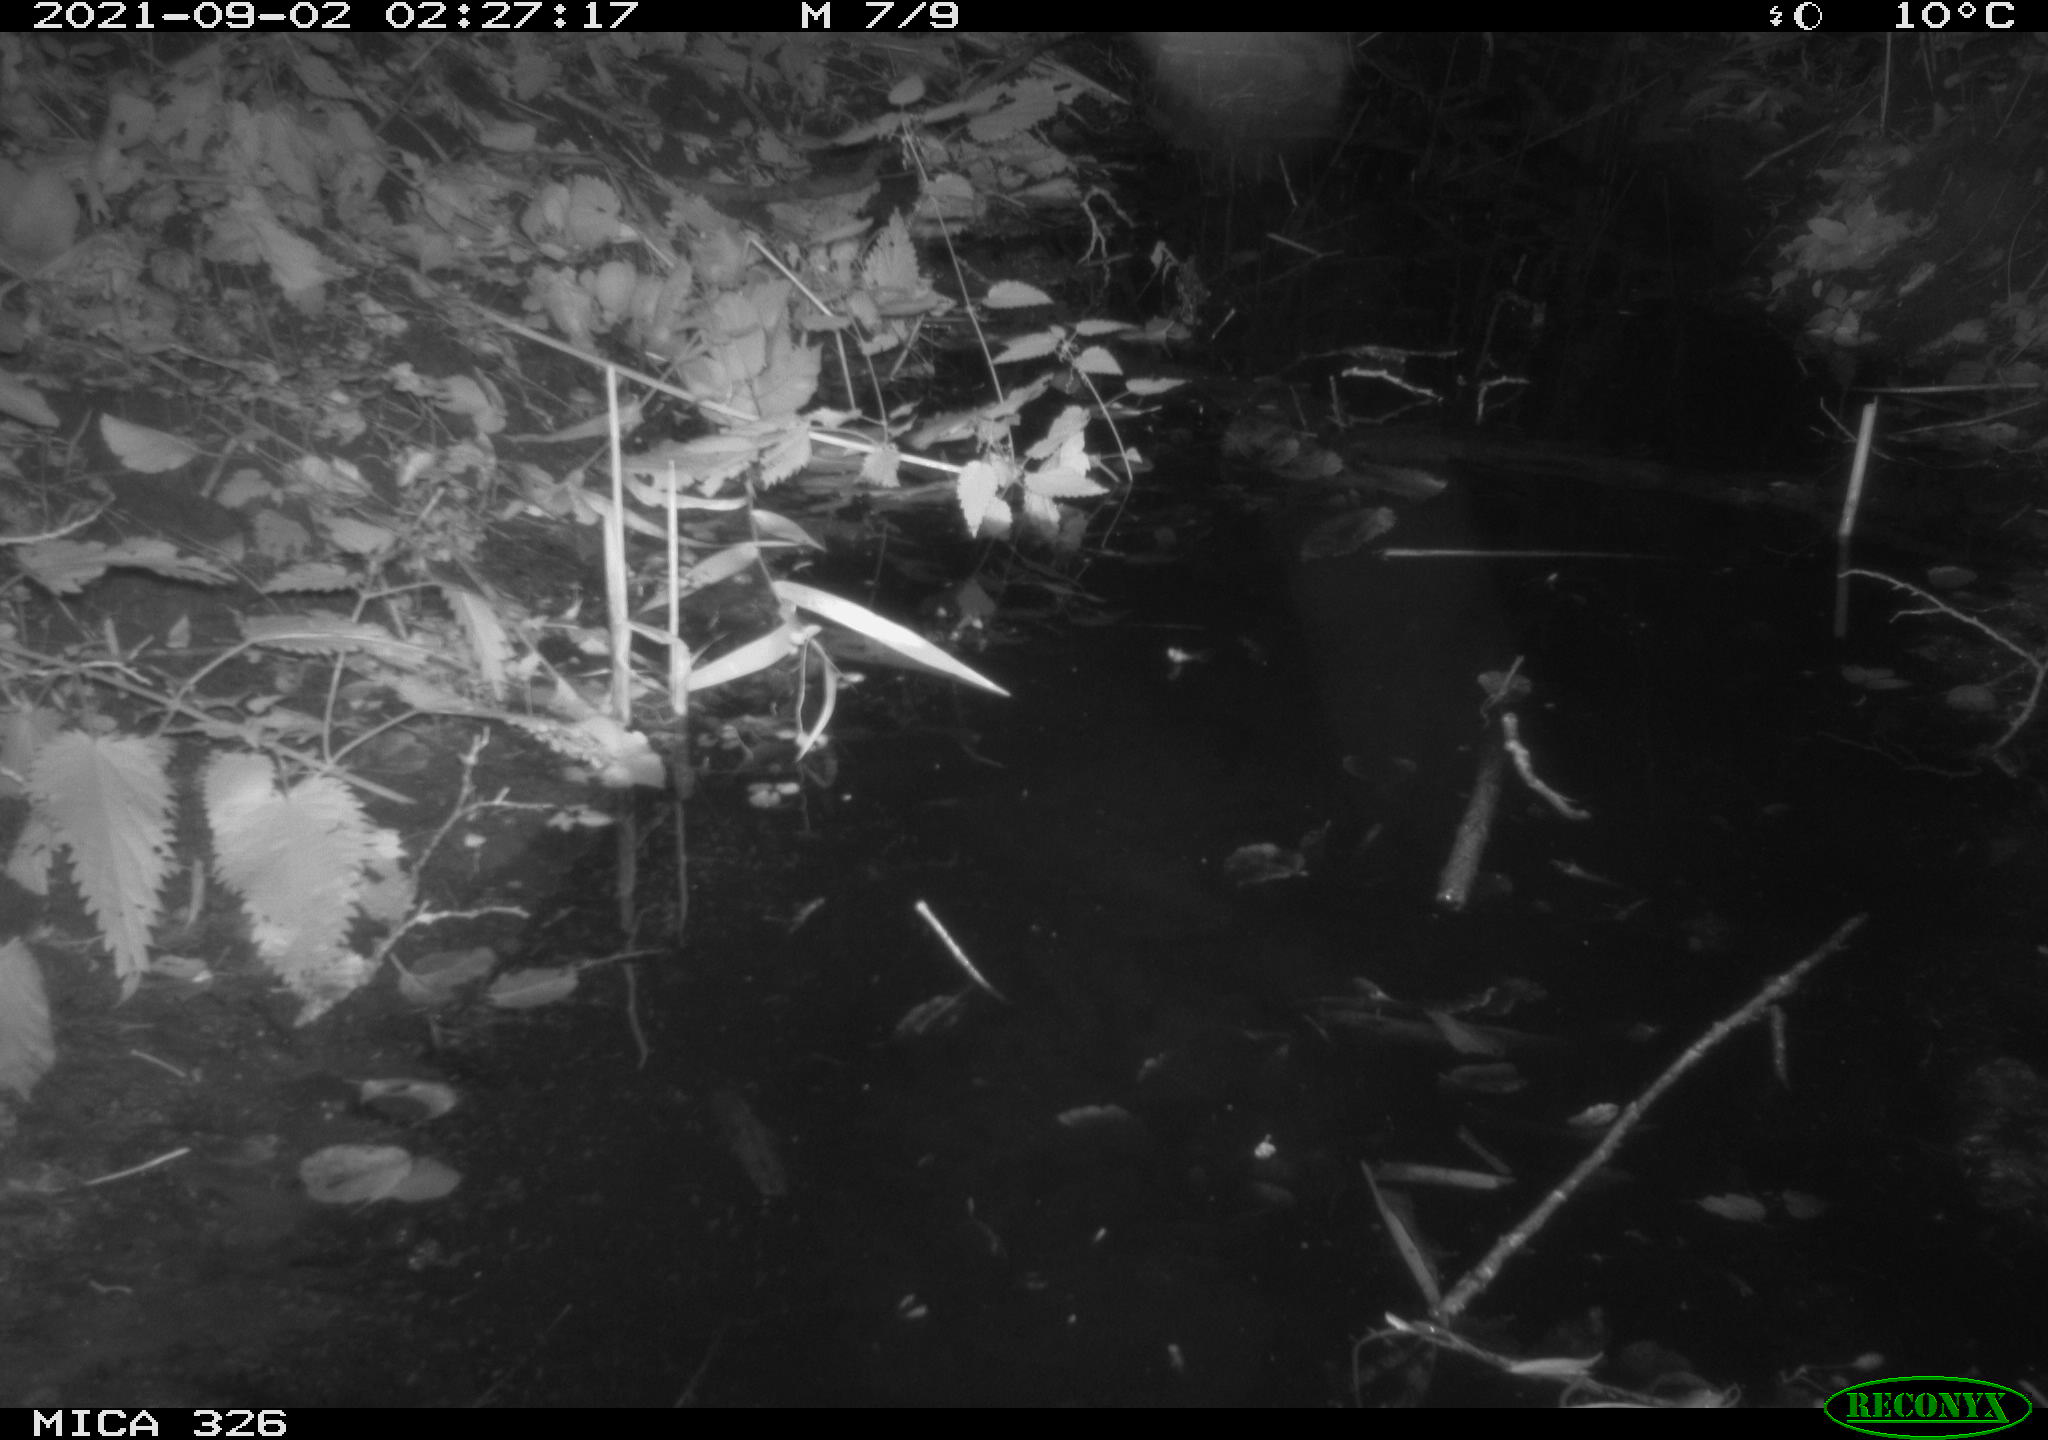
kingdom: Animalia
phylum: Chordata
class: Mammalia
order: Rodentia
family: Cricetidae
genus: Ondatra
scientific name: Ondatra zibethicus
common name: Muskrat
